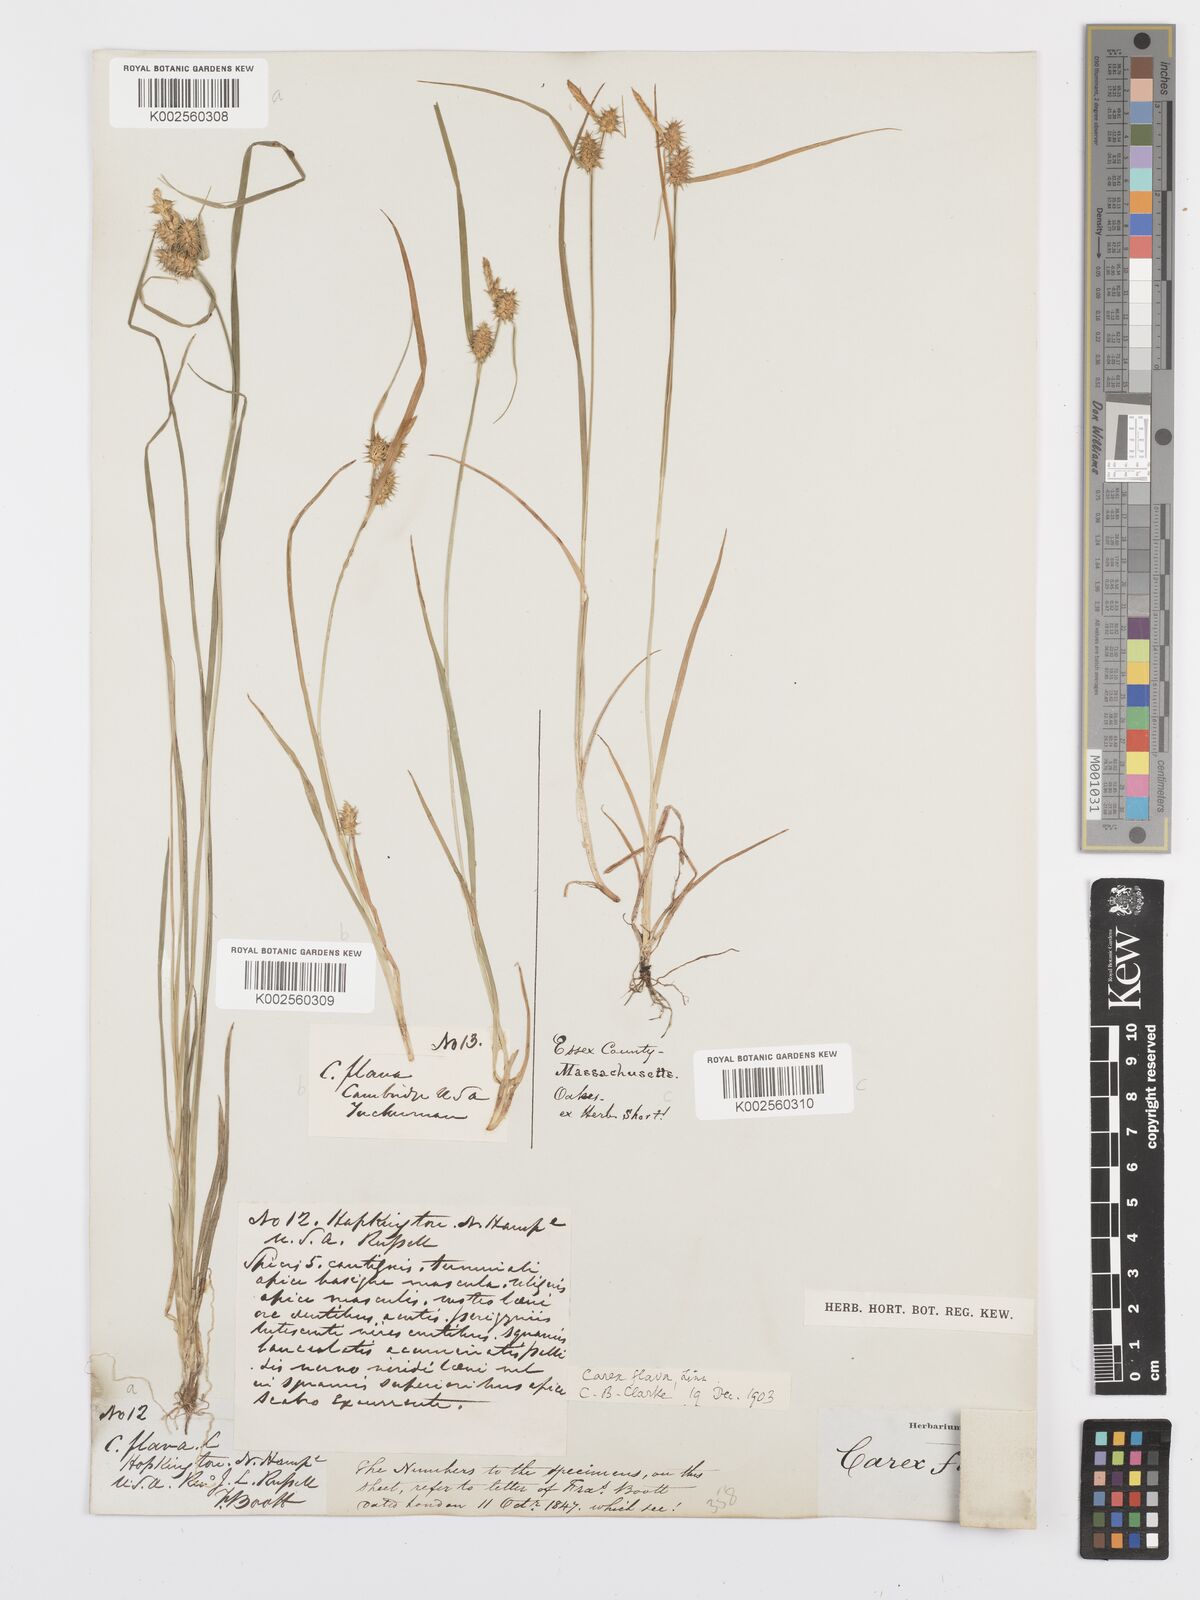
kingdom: Plantae
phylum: Tracheophyta
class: Liliopsida
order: Poales
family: Cyperaceae
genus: Carex
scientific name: Carex flava
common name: Large yellow-sedge
